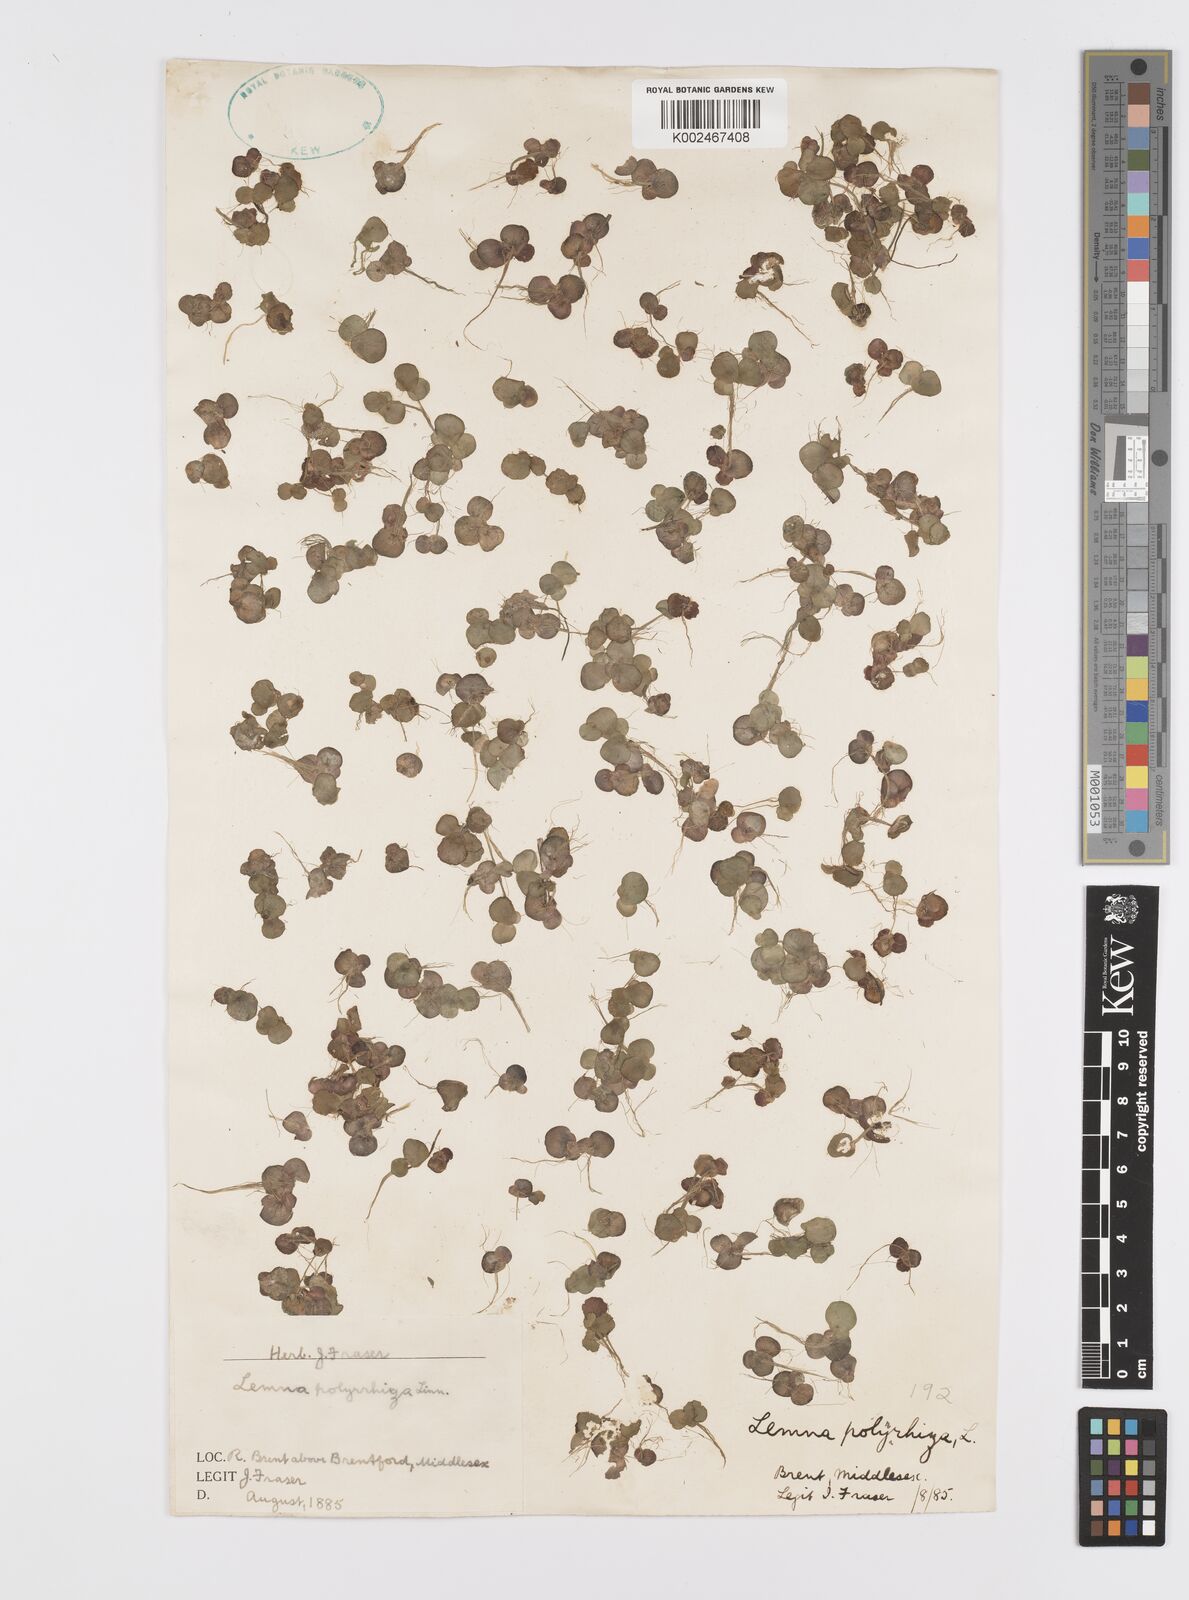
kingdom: Plantae
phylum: Tracheophyta
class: Liliopsida
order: Alismatales
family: Araceae
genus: Spirodela
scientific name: Spirodela polyrhiza
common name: Great duckweed
